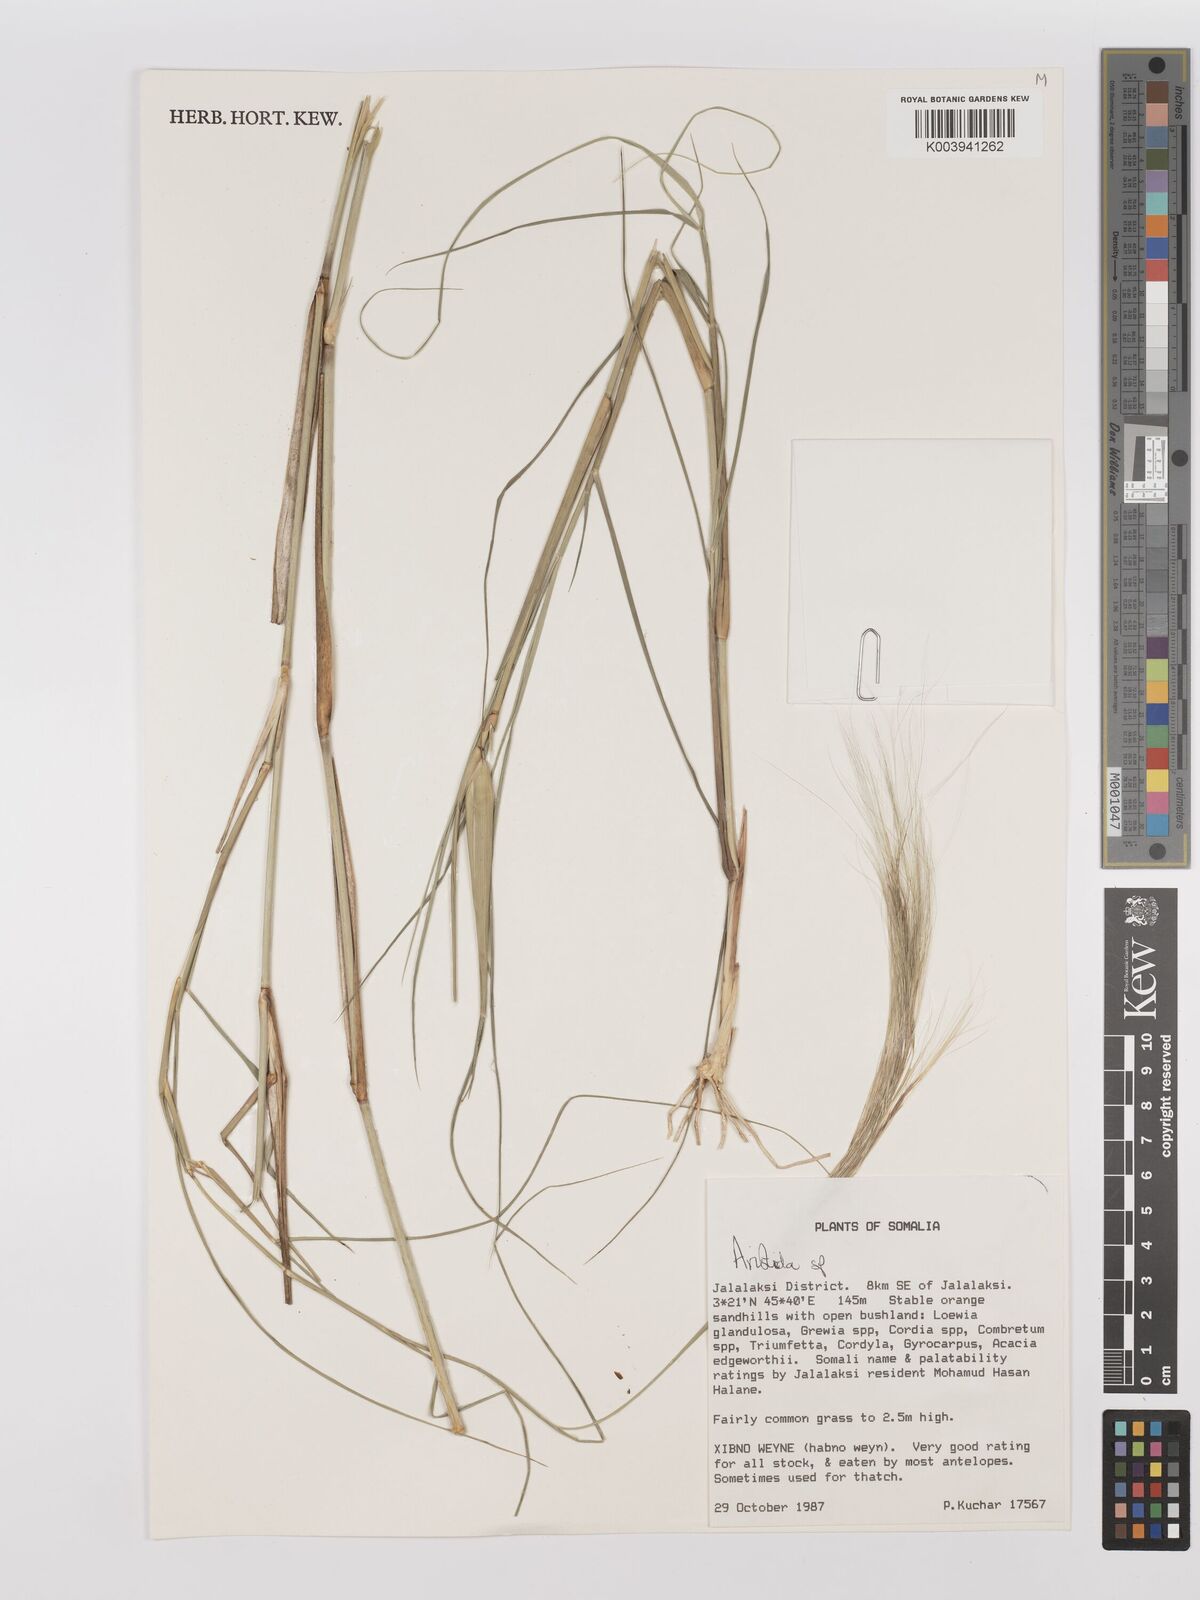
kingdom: Plantae
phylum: Tracheophyta
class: Liliopsida
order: Poales
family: Poaceae
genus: Stipagrostis
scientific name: Stipagrostis
